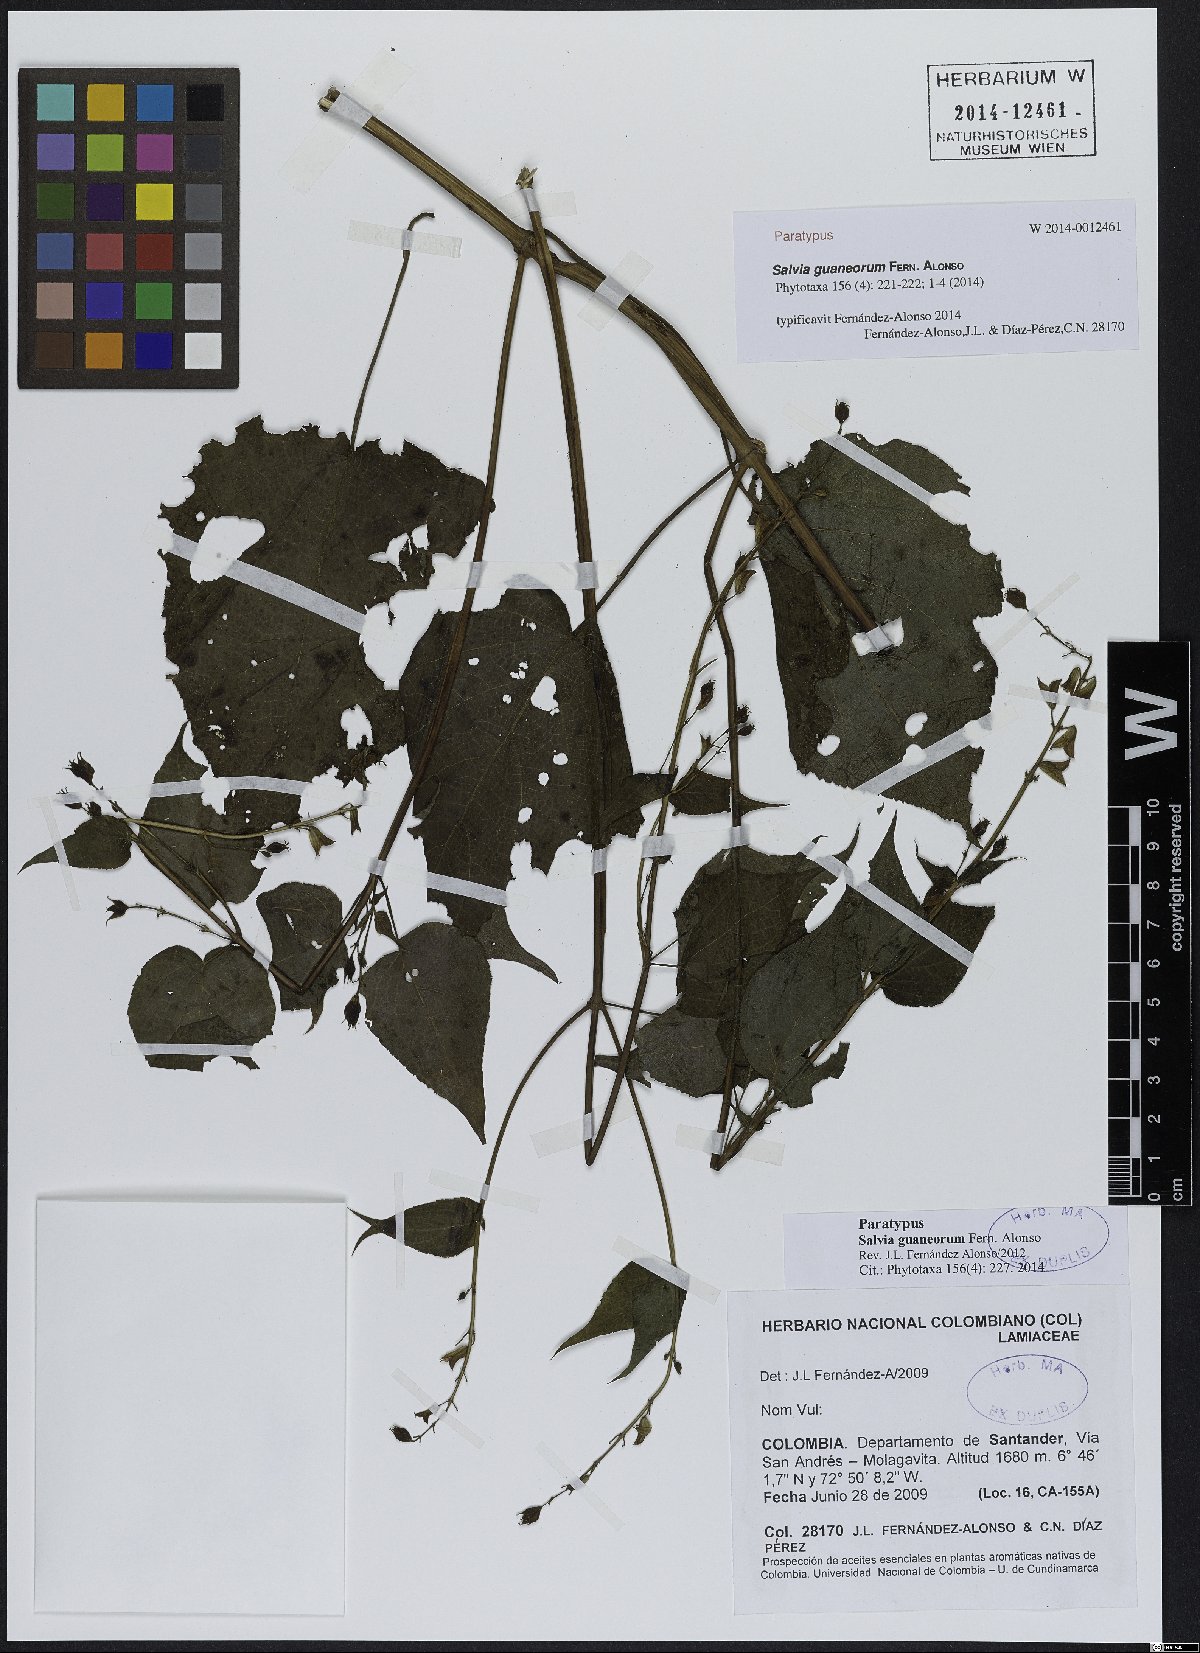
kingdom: Plantae
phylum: Tracheophyta
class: Magnoliopsida
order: Lamiales
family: Lamiaceae
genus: Salvia
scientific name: Salvia guaneorum
